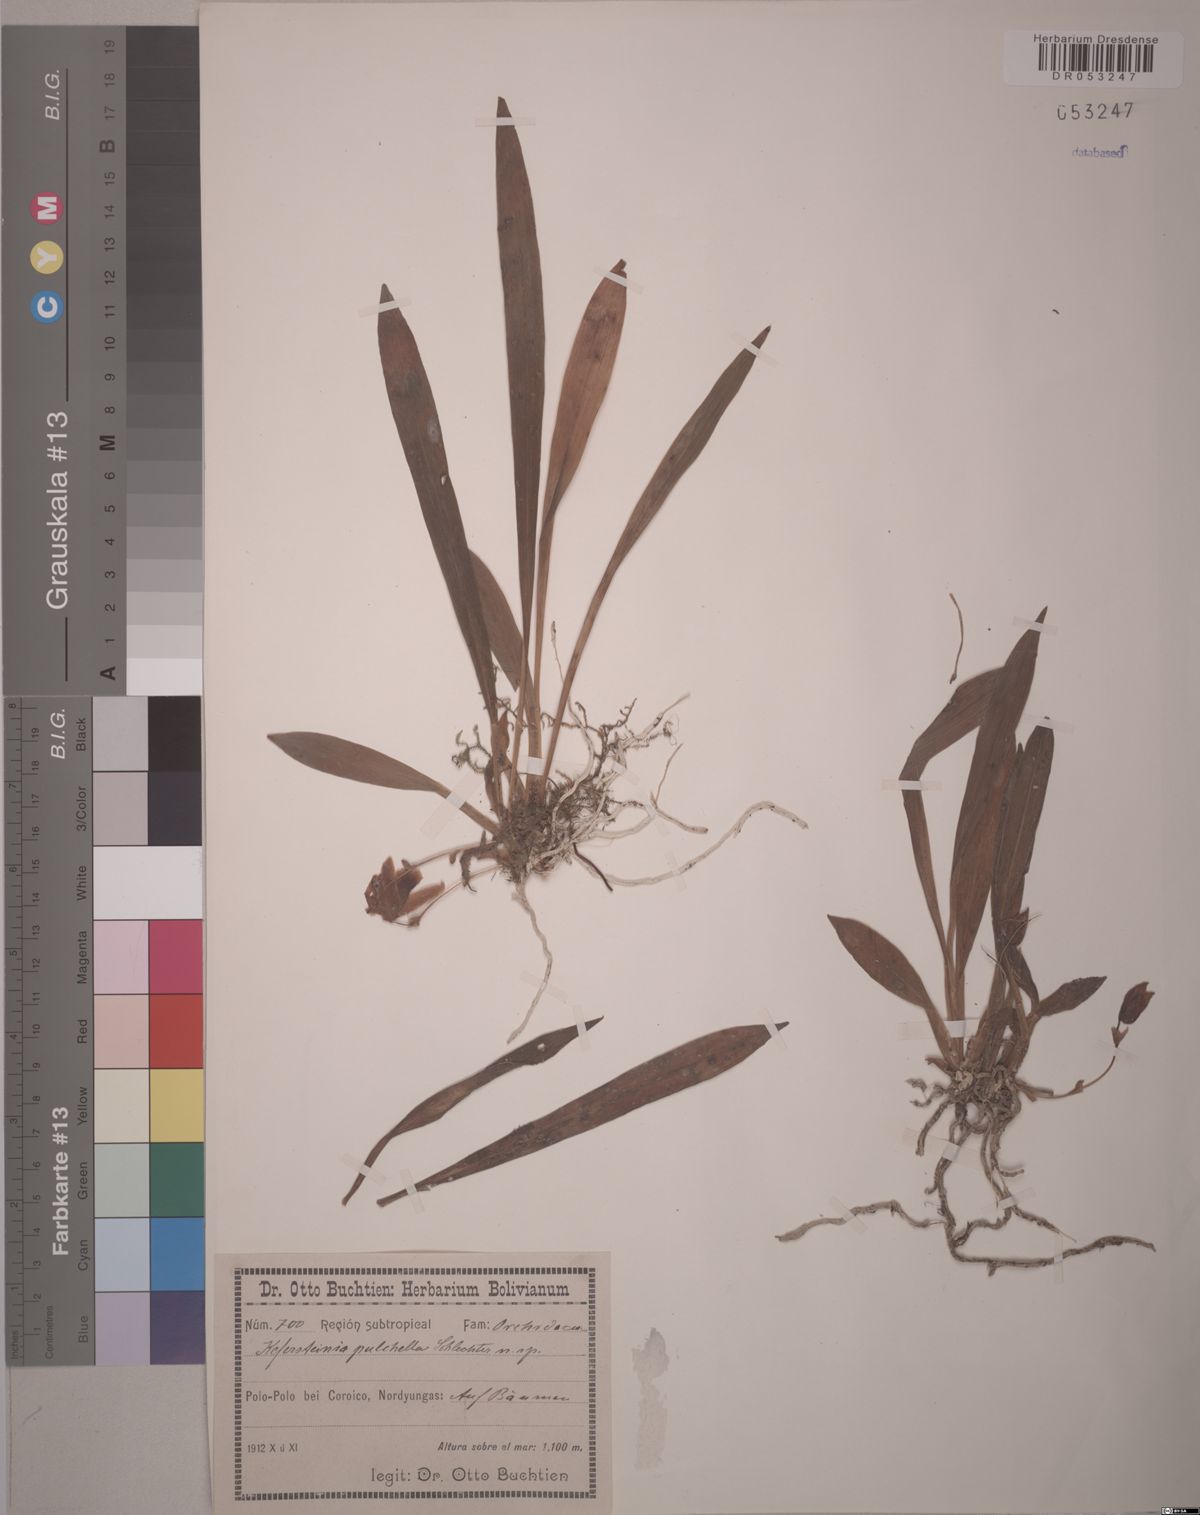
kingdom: Plantae
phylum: Tracheophyta
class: Liliopsida
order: Asparagales
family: Orchidaceae
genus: Kefersteinia
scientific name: Kefersteinia pulchella
